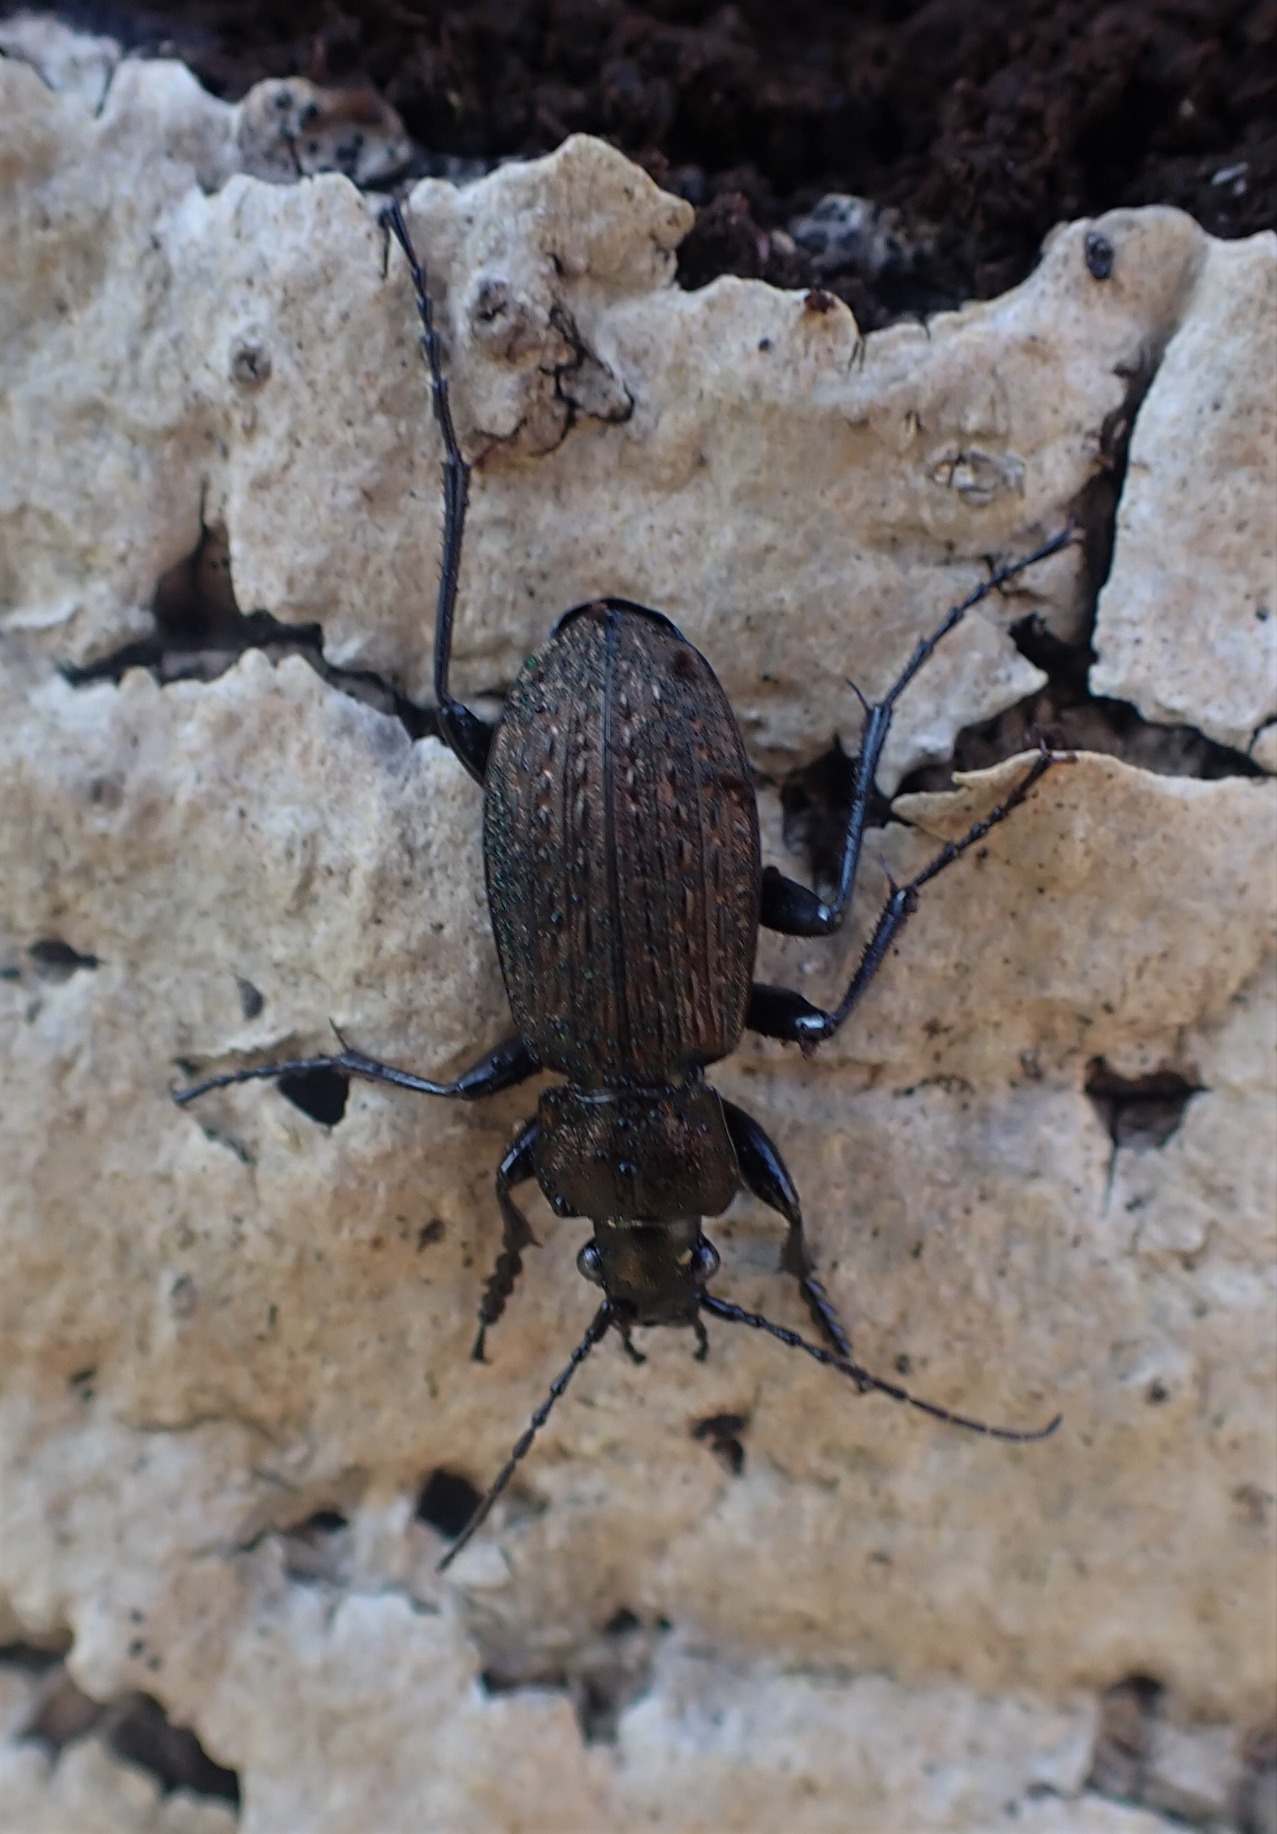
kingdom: Animalia
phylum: Arthropoda
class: Insecta
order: Coleoptera
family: Carabidae
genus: Carabus
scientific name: Carabus granulatus
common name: Kornet løber
